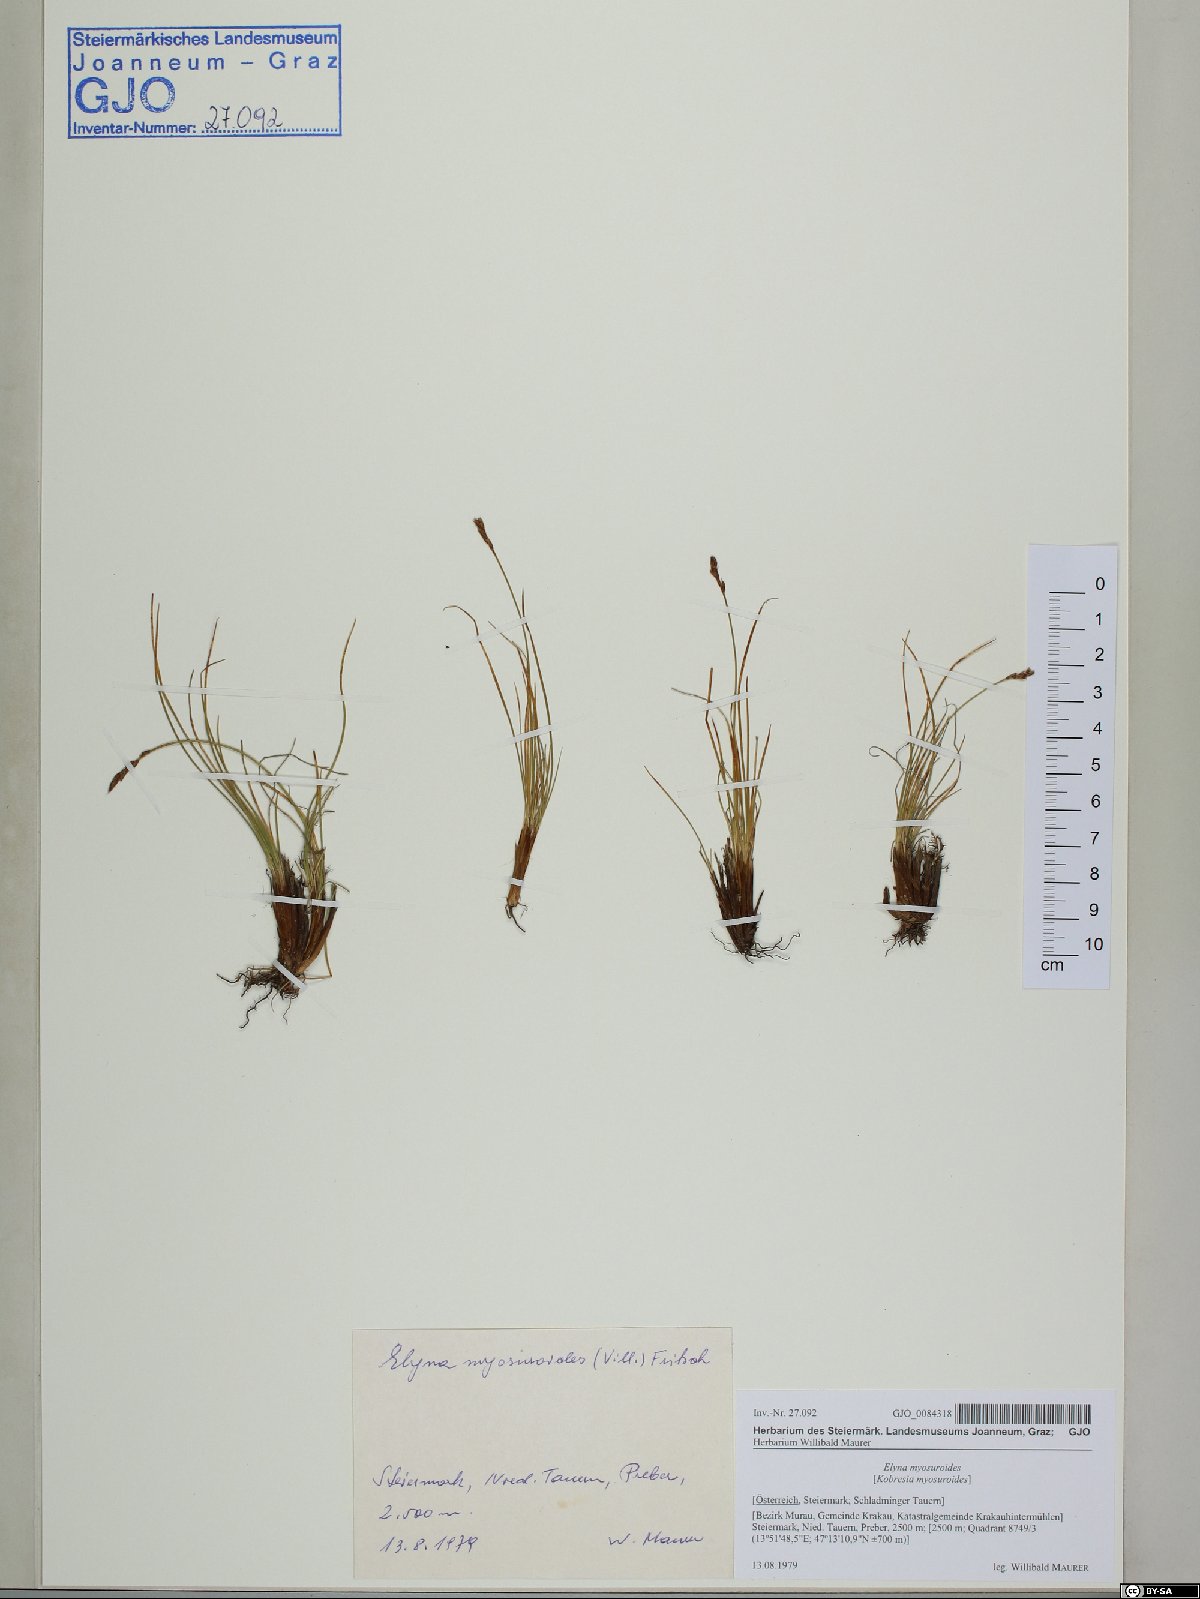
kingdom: Plantae
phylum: Tracheophyta
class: Liliopsida
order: Poales
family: Cyperaceae
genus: Carex
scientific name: Carex myosuroides
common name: Bellard's bog sedge
